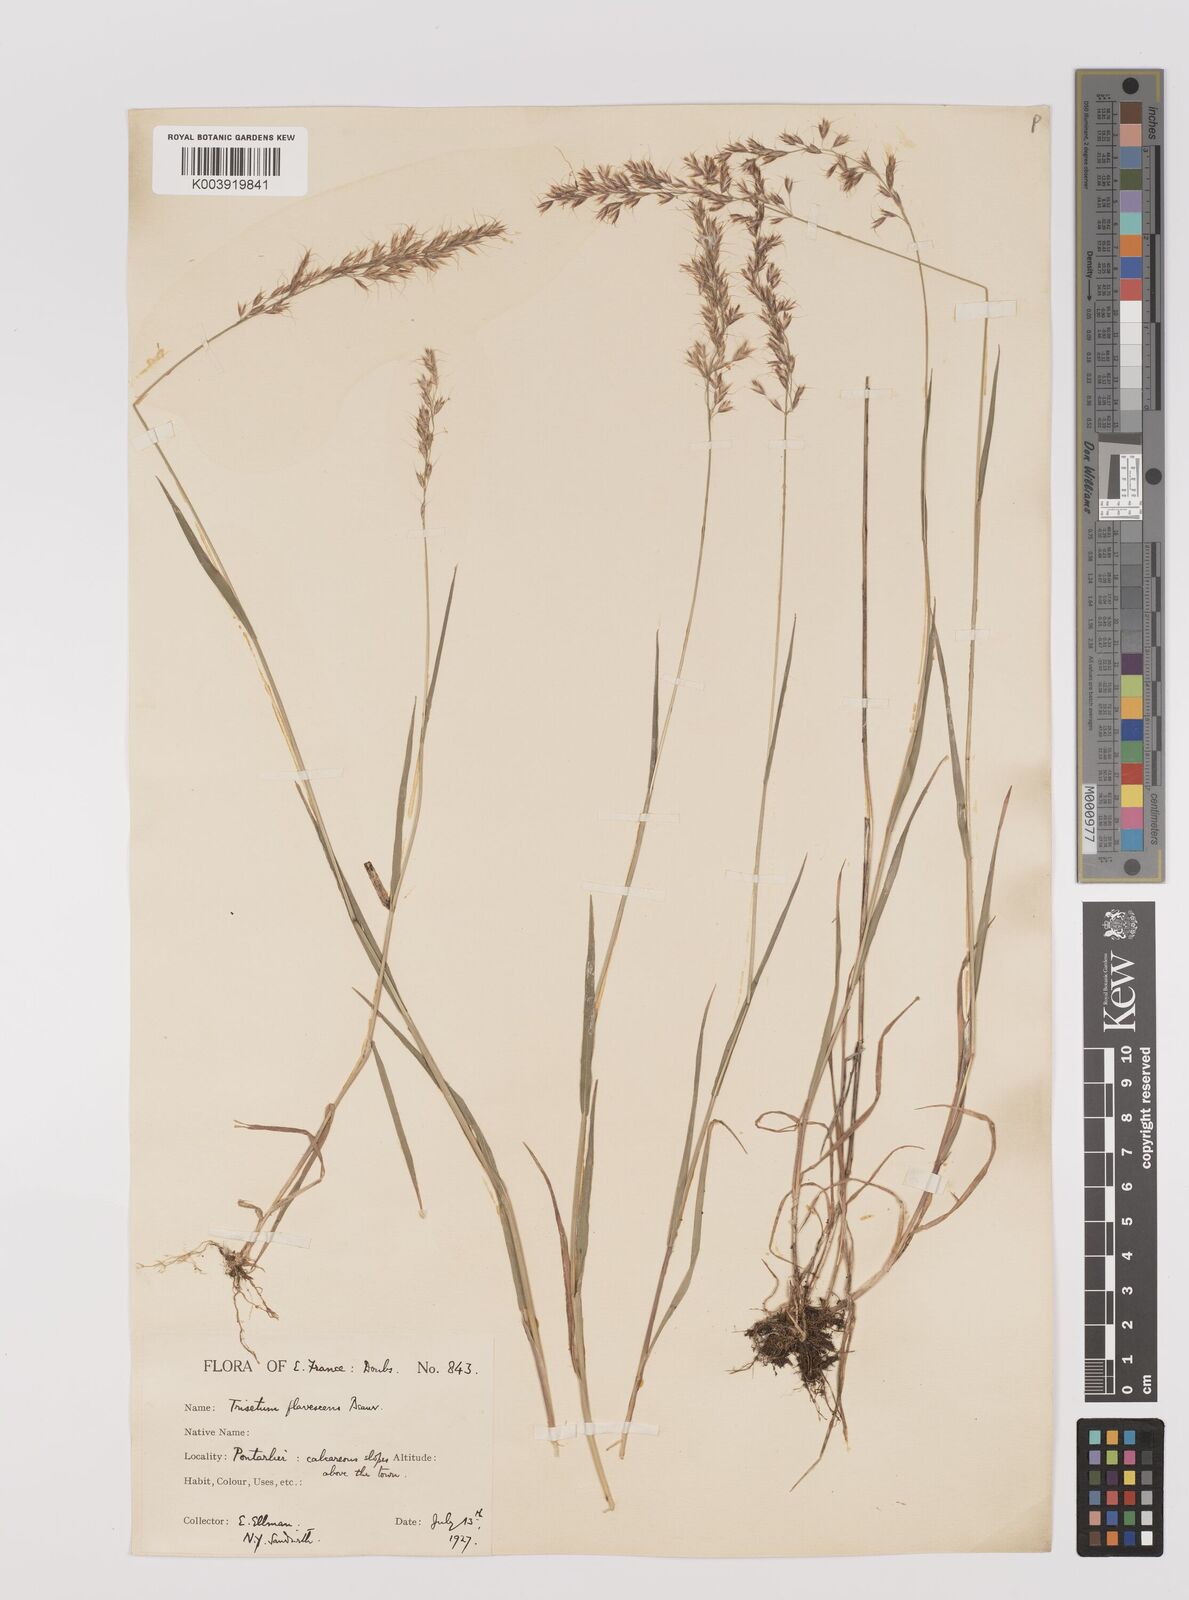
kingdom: Plantae
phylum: Tracheophyta
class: Liliopsida
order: Poales
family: Poaceae
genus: Trisetum
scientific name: Trisetum flavescens
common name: Yellow oat-grass
